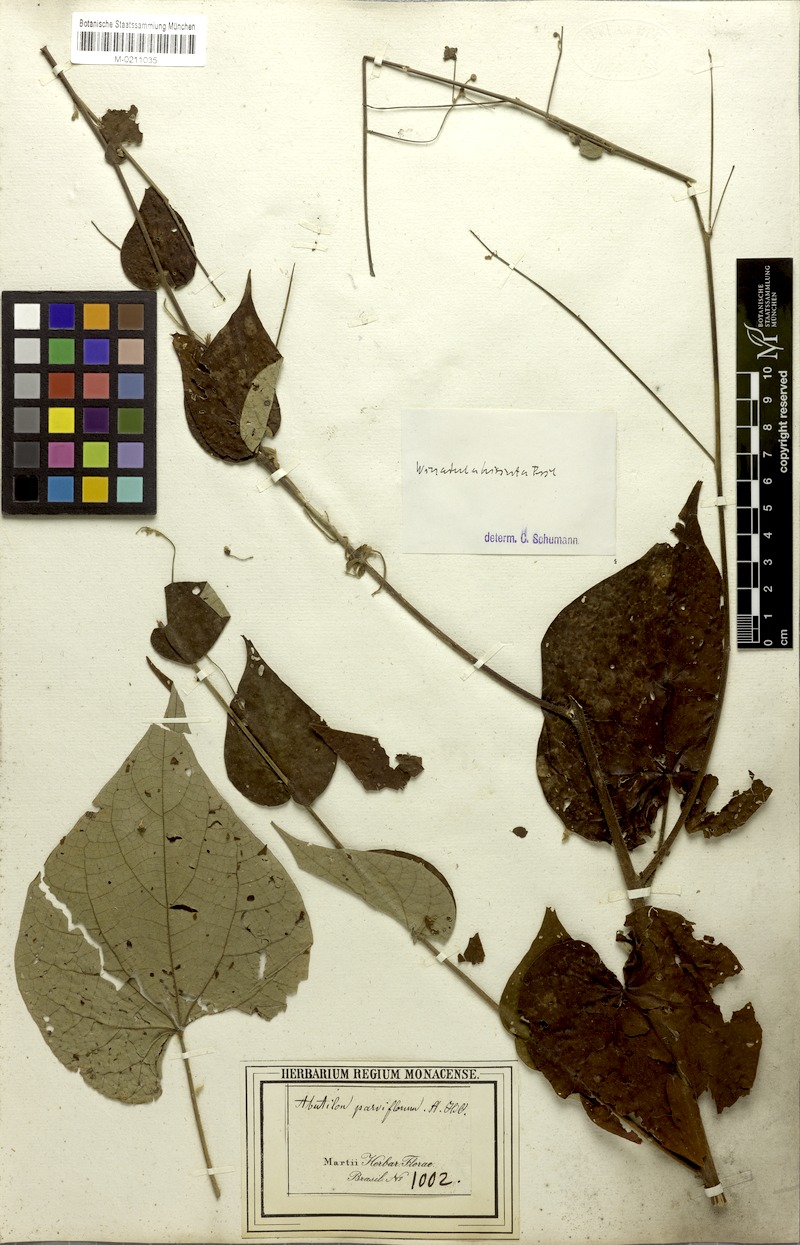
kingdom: Plantae
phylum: Tracheophyta
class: Magnoliopsida
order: Malvales
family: Malvaceae
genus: Wissadula
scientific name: Wissadula amplissima
